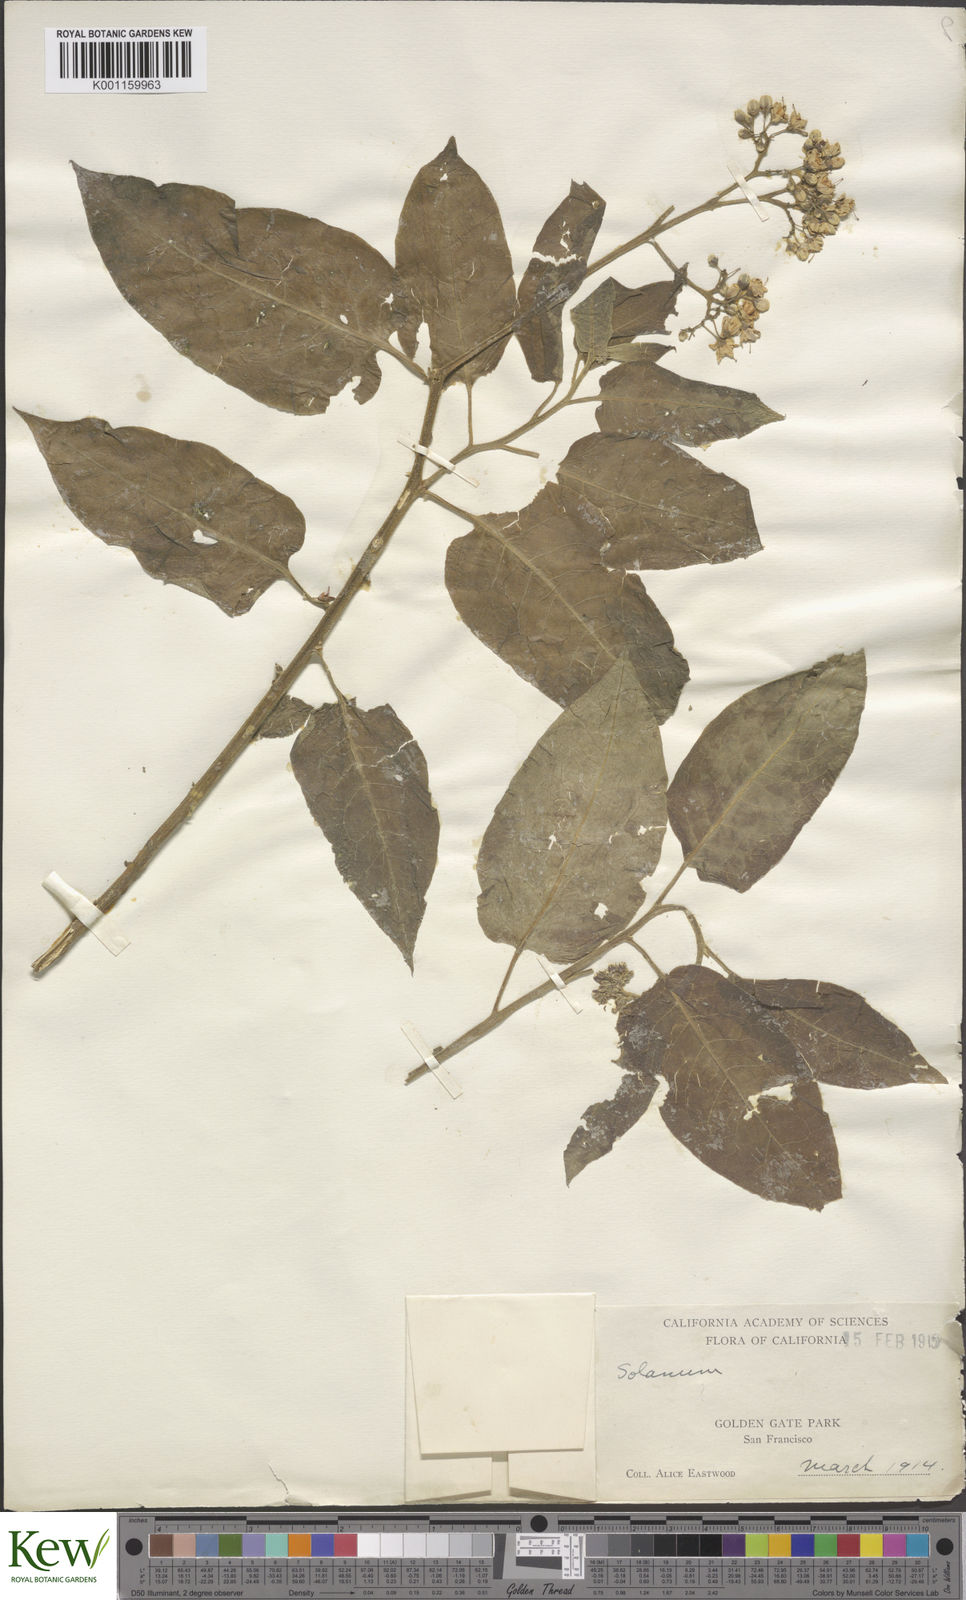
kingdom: Plantae
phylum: Tracheophyta
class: Magnoliopsida
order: Solanales
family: Solanaceae
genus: Solanum
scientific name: Solanum crispum
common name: Chilean nightshade
